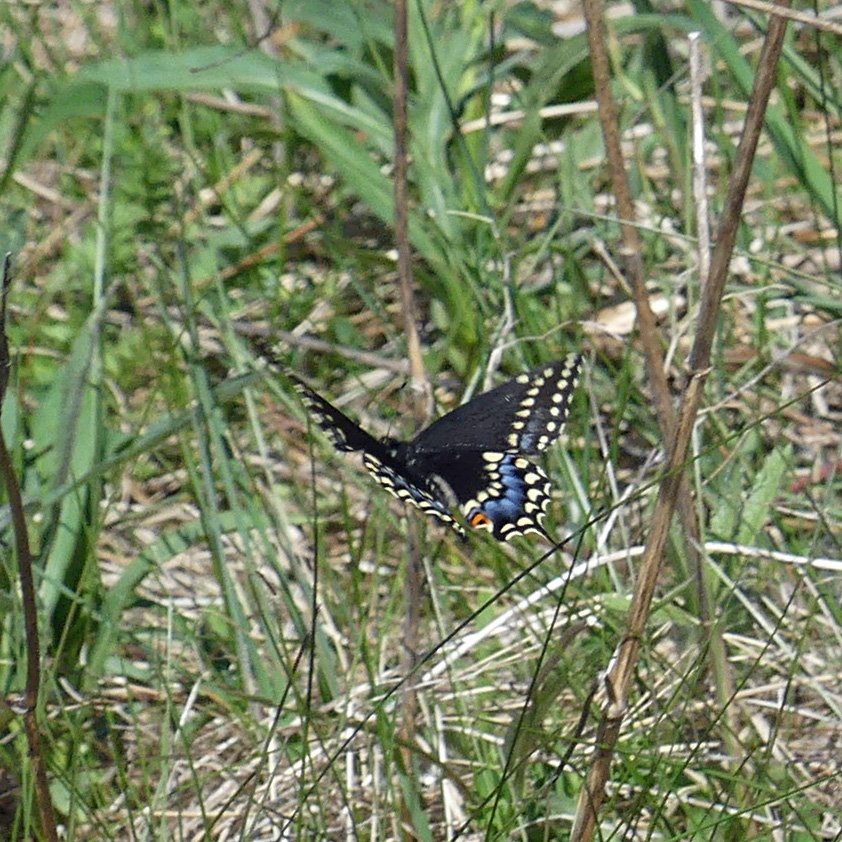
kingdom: Animalia
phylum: Arthropoda
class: Insecta
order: Lepidoptera
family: Papilionidae
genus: Papilio
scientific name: Papilio polyxenes
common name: Black Swallowtail
